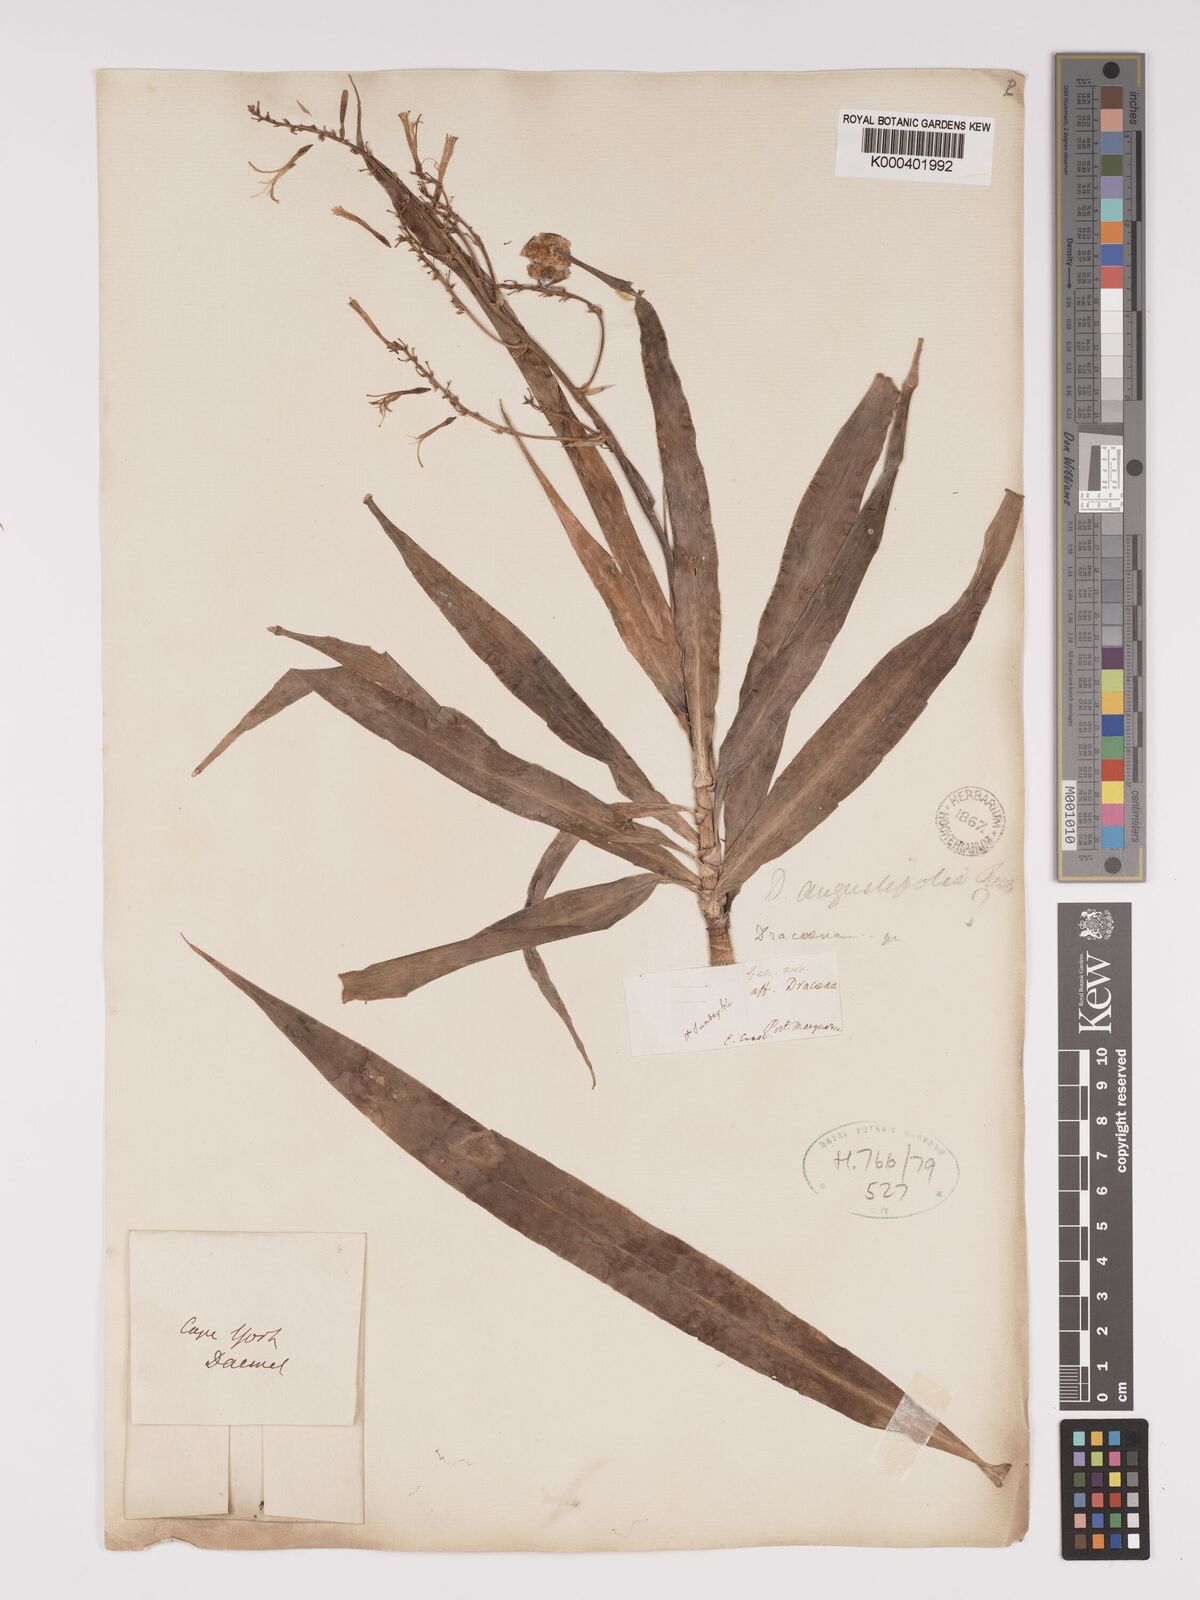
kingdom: Plantae
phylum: Tracheophyta
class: Liliopsida
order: Asparagales
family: Asparagaceae
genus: Dracaena
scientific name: Dracaena angustifolia
